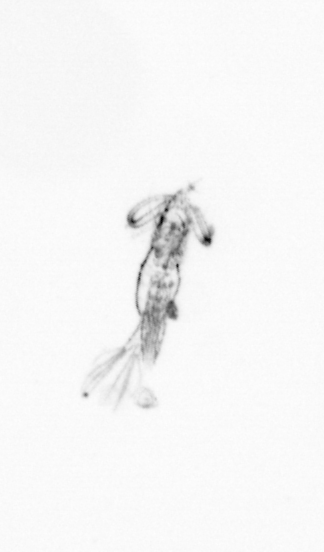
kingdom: Animalia
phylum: Arthropoda
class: Copepoda
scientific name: Copepoda
